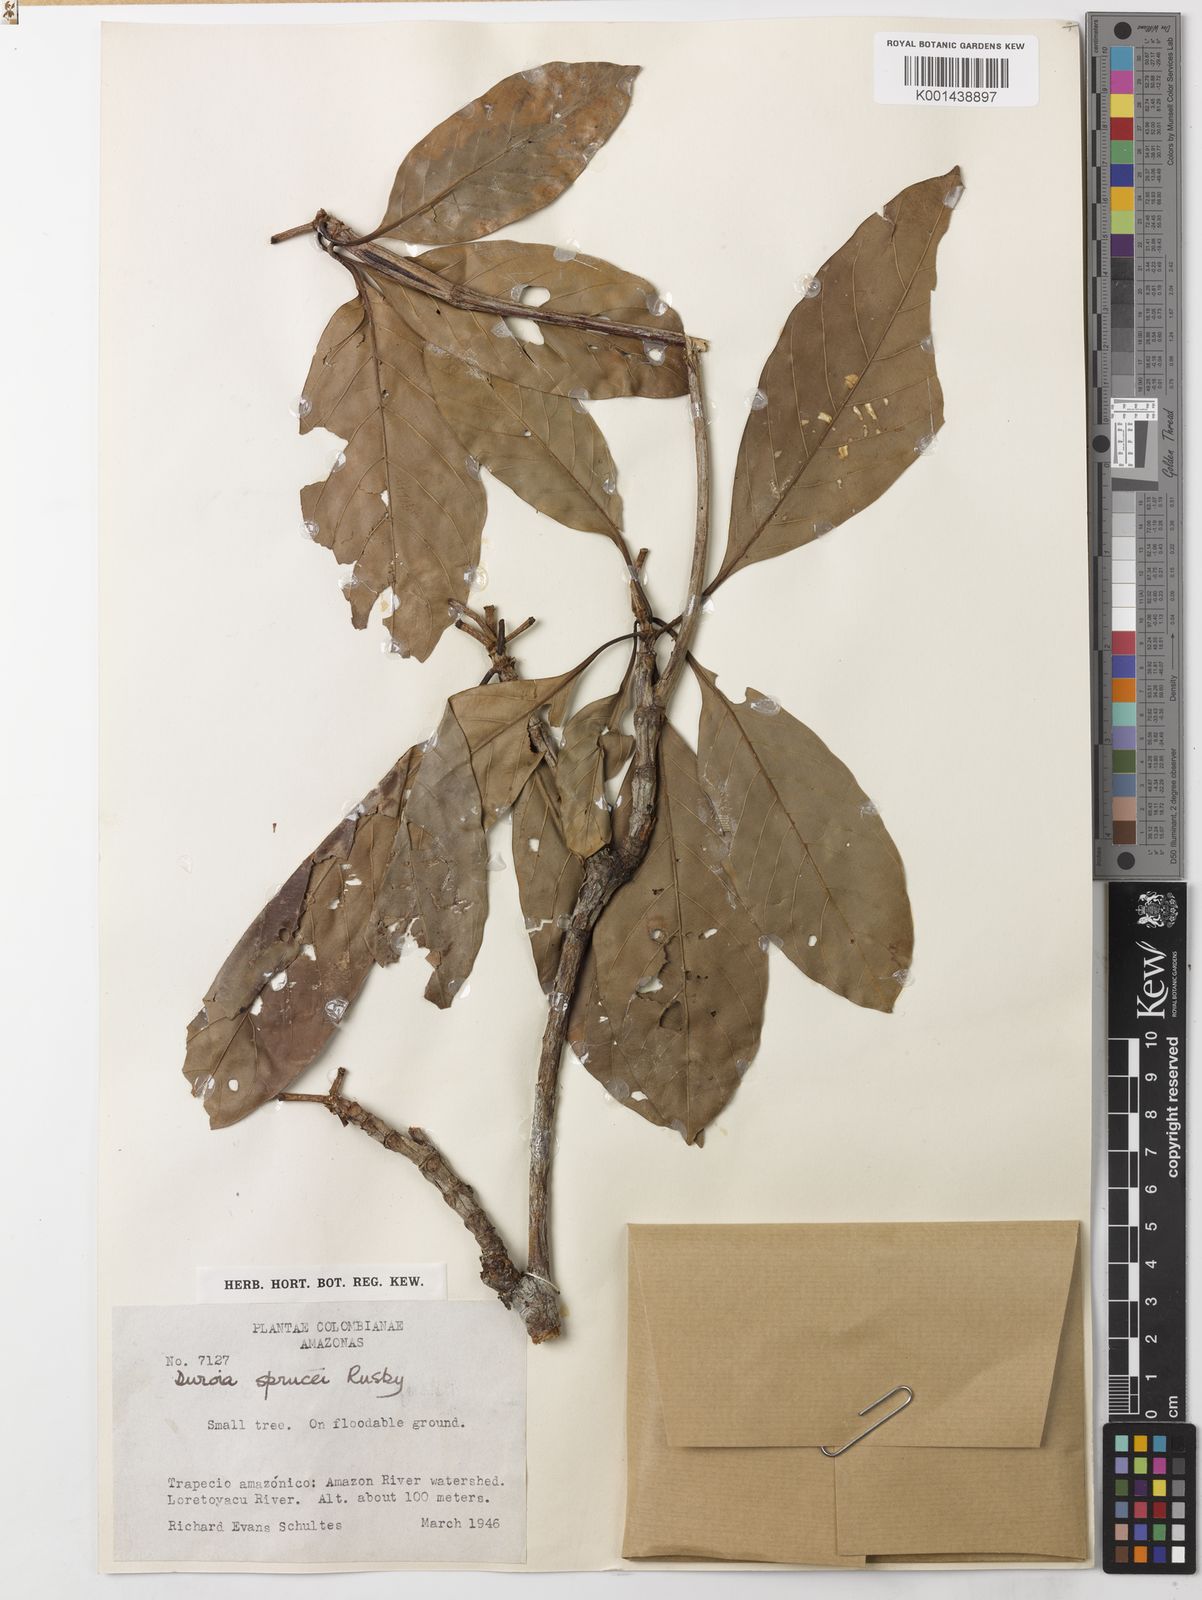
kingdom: Plantae
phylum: Tracheophyta
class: Magnoliopsida
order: Gentianales
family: Rubiaceae
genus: Duroia
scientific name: Duroia micrantha
